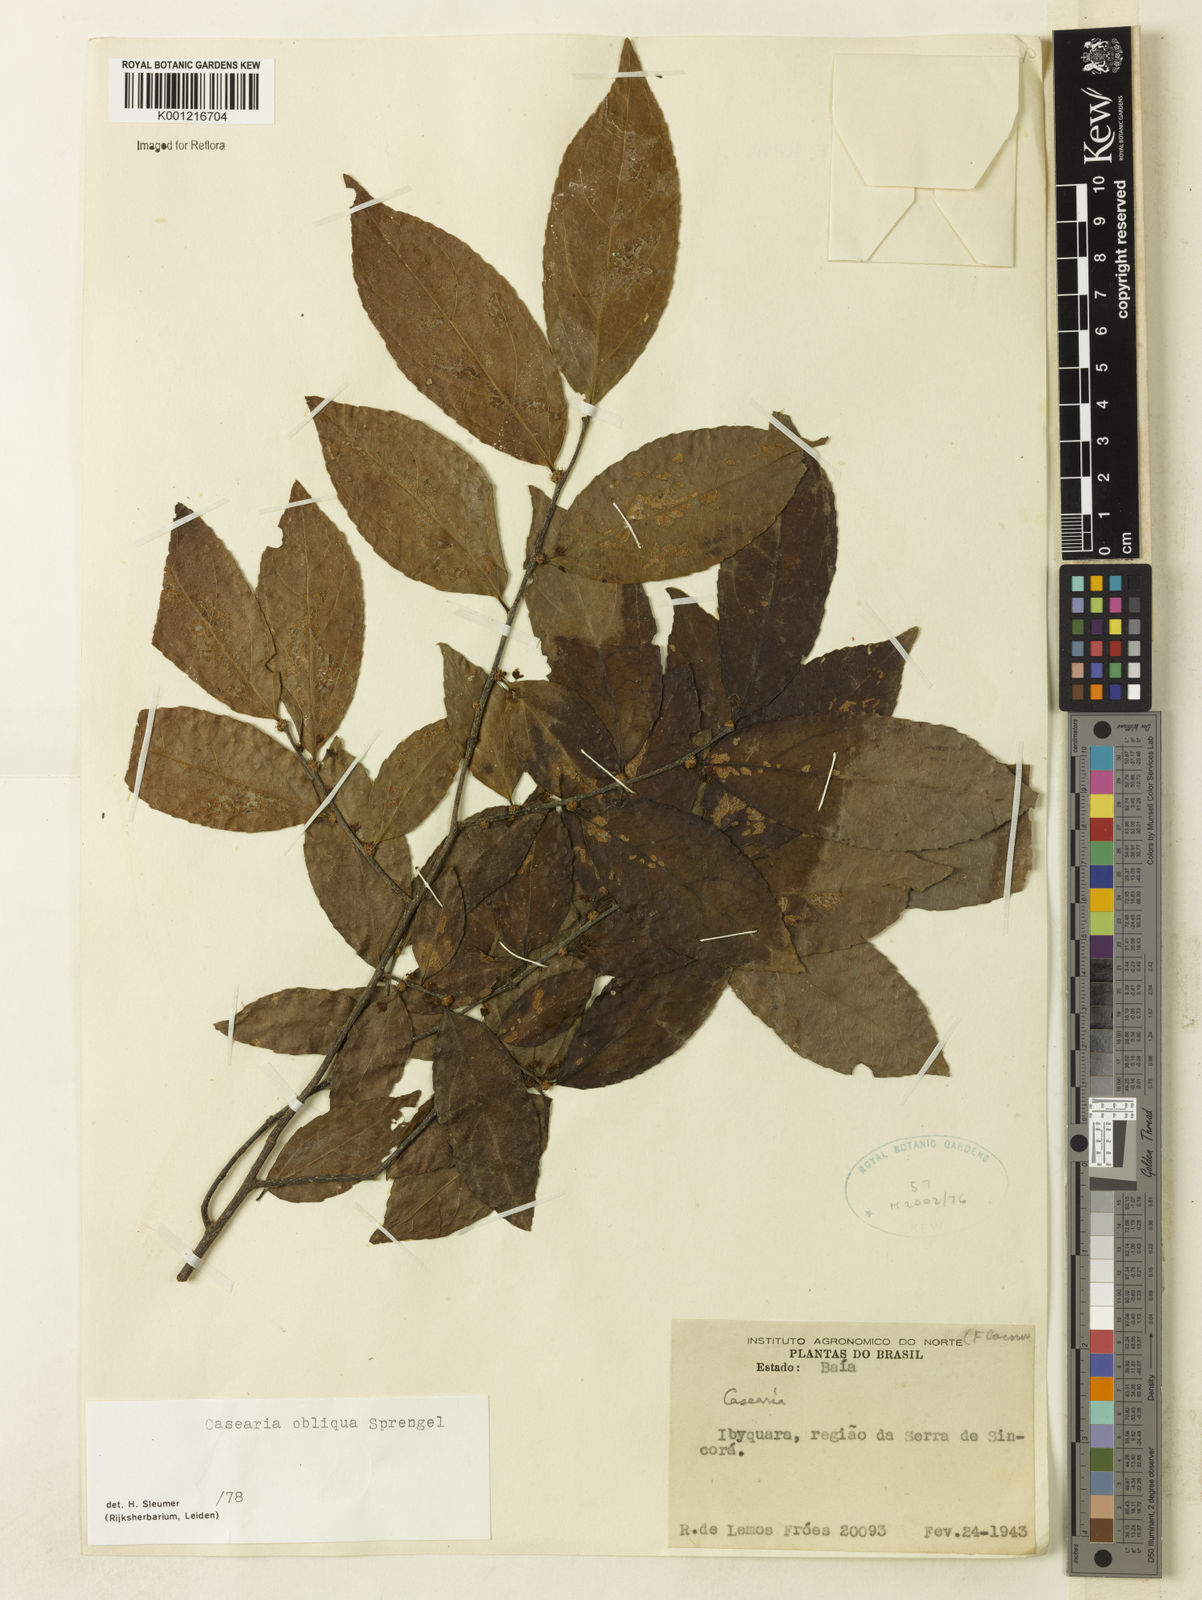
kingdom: Plantae
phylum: Tracheophyta
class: Magnoliopsida
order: Malpighiales
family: Salicaceae
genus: Casearia
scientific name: Casearia obliqua
